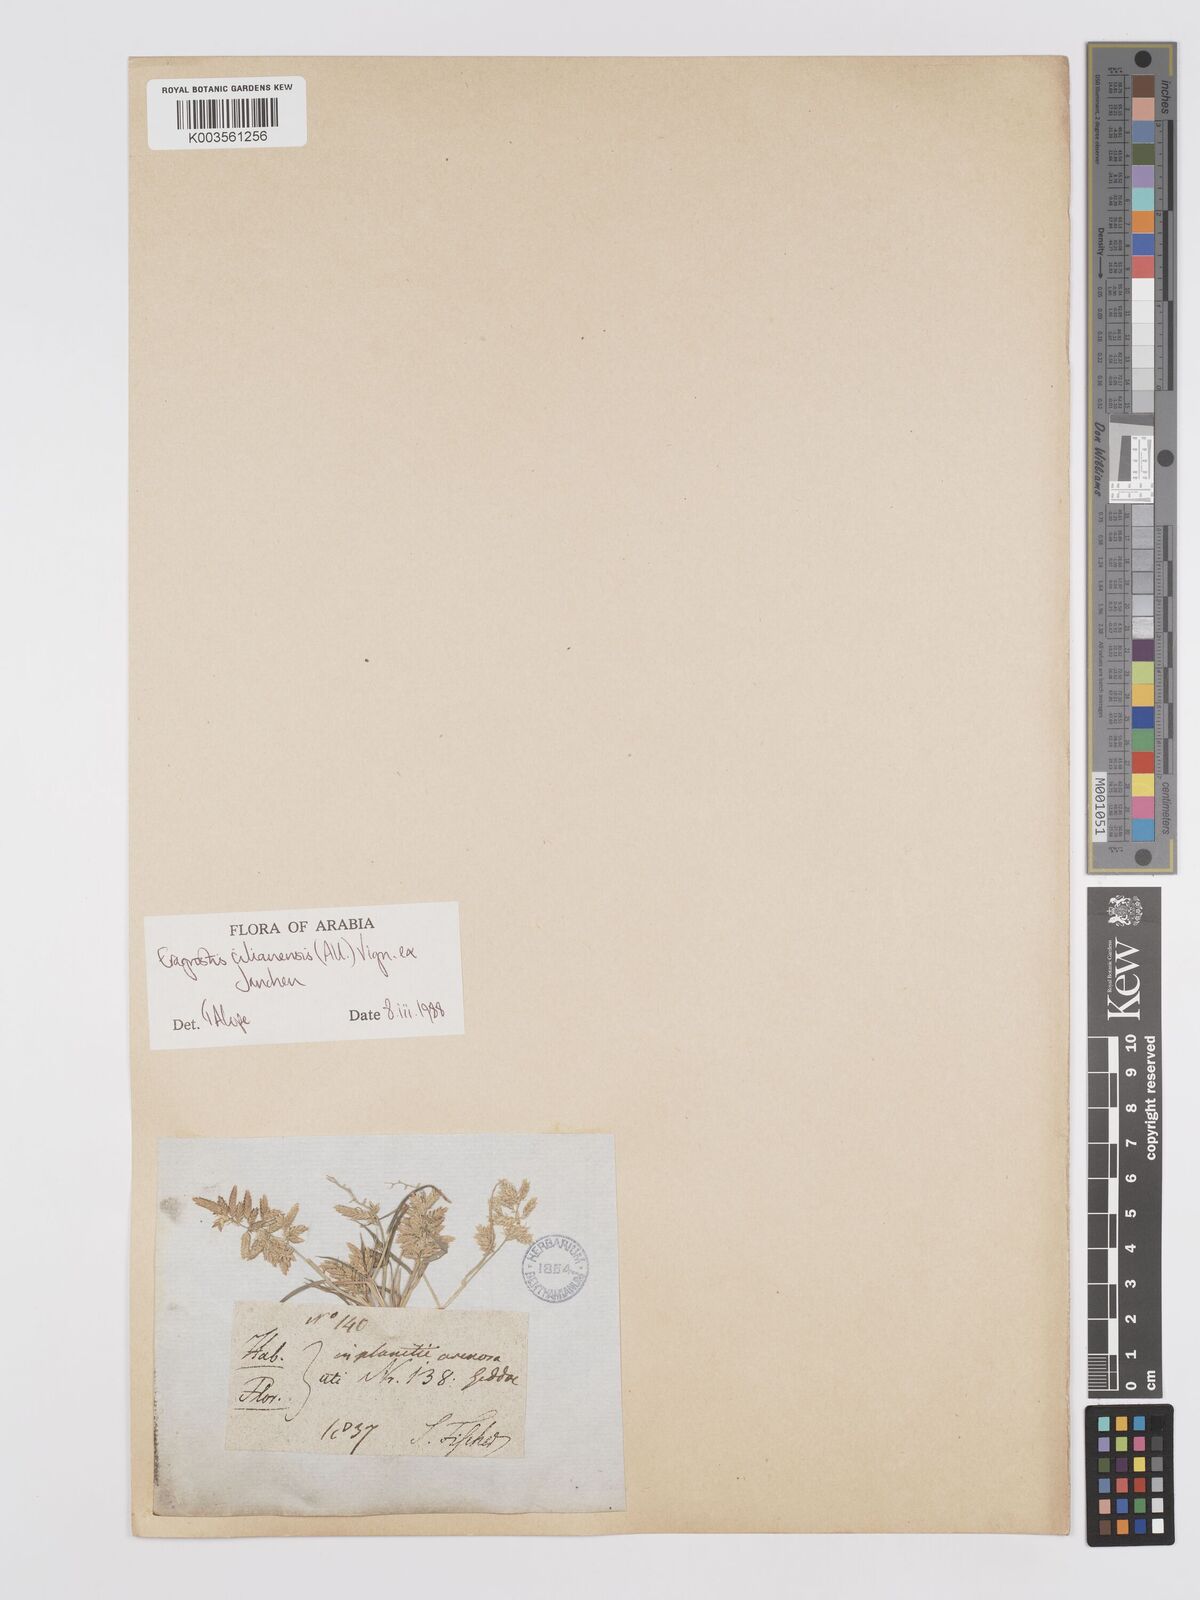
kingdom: Plantae
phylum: Tracheophyta
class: Liliopsida
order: Poales
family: Poaceae
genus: Eragrostis
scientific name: Eragrostis cilianensis
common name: Stinkgrass
